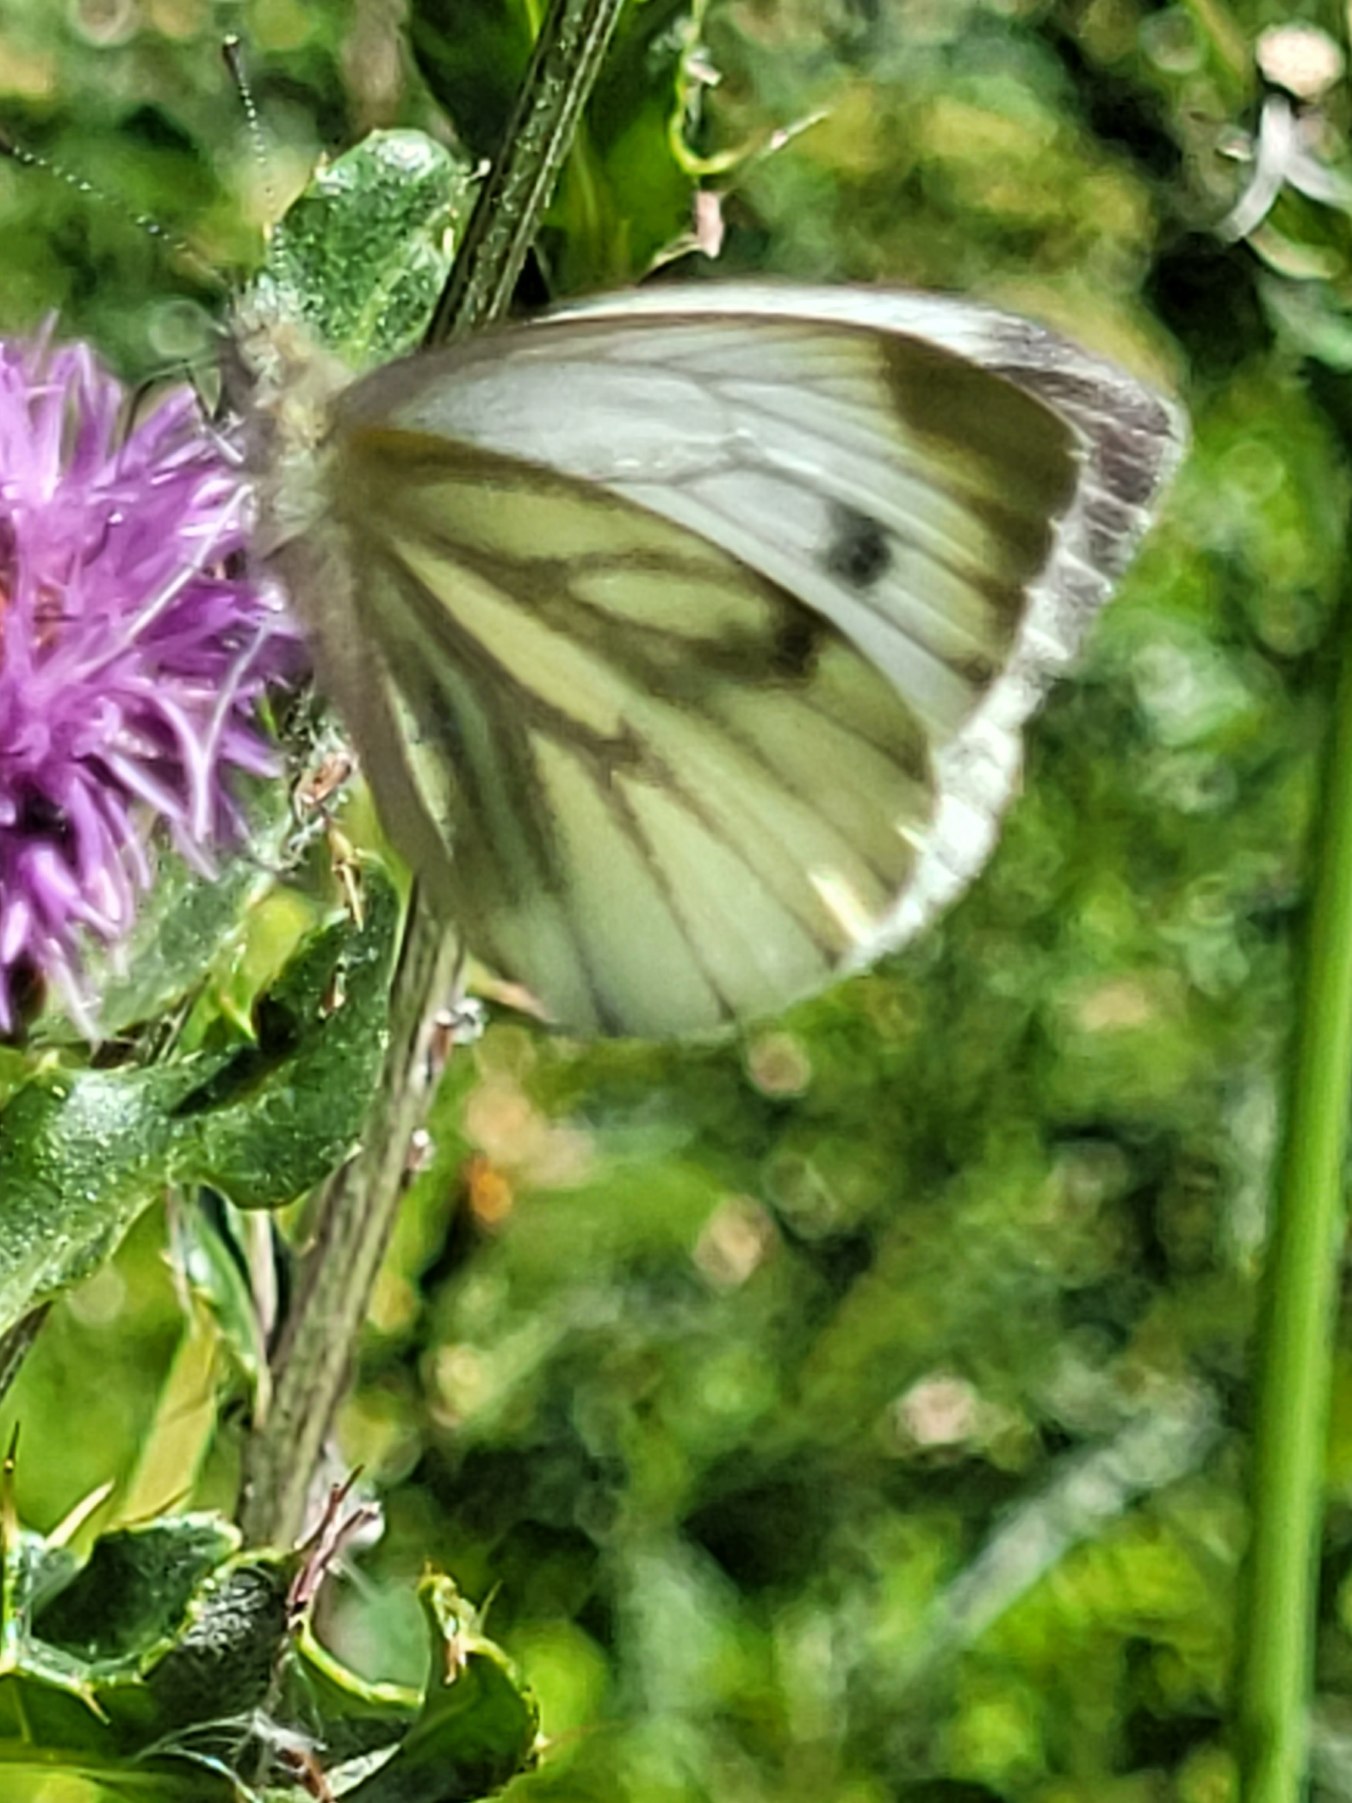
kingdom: Animalia
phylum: Arthropoda
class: Insecta
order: Lepidoptera
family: Pieridae
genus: Pieris
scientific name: Pieris napi
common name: Grønåret kålsommerfugl
